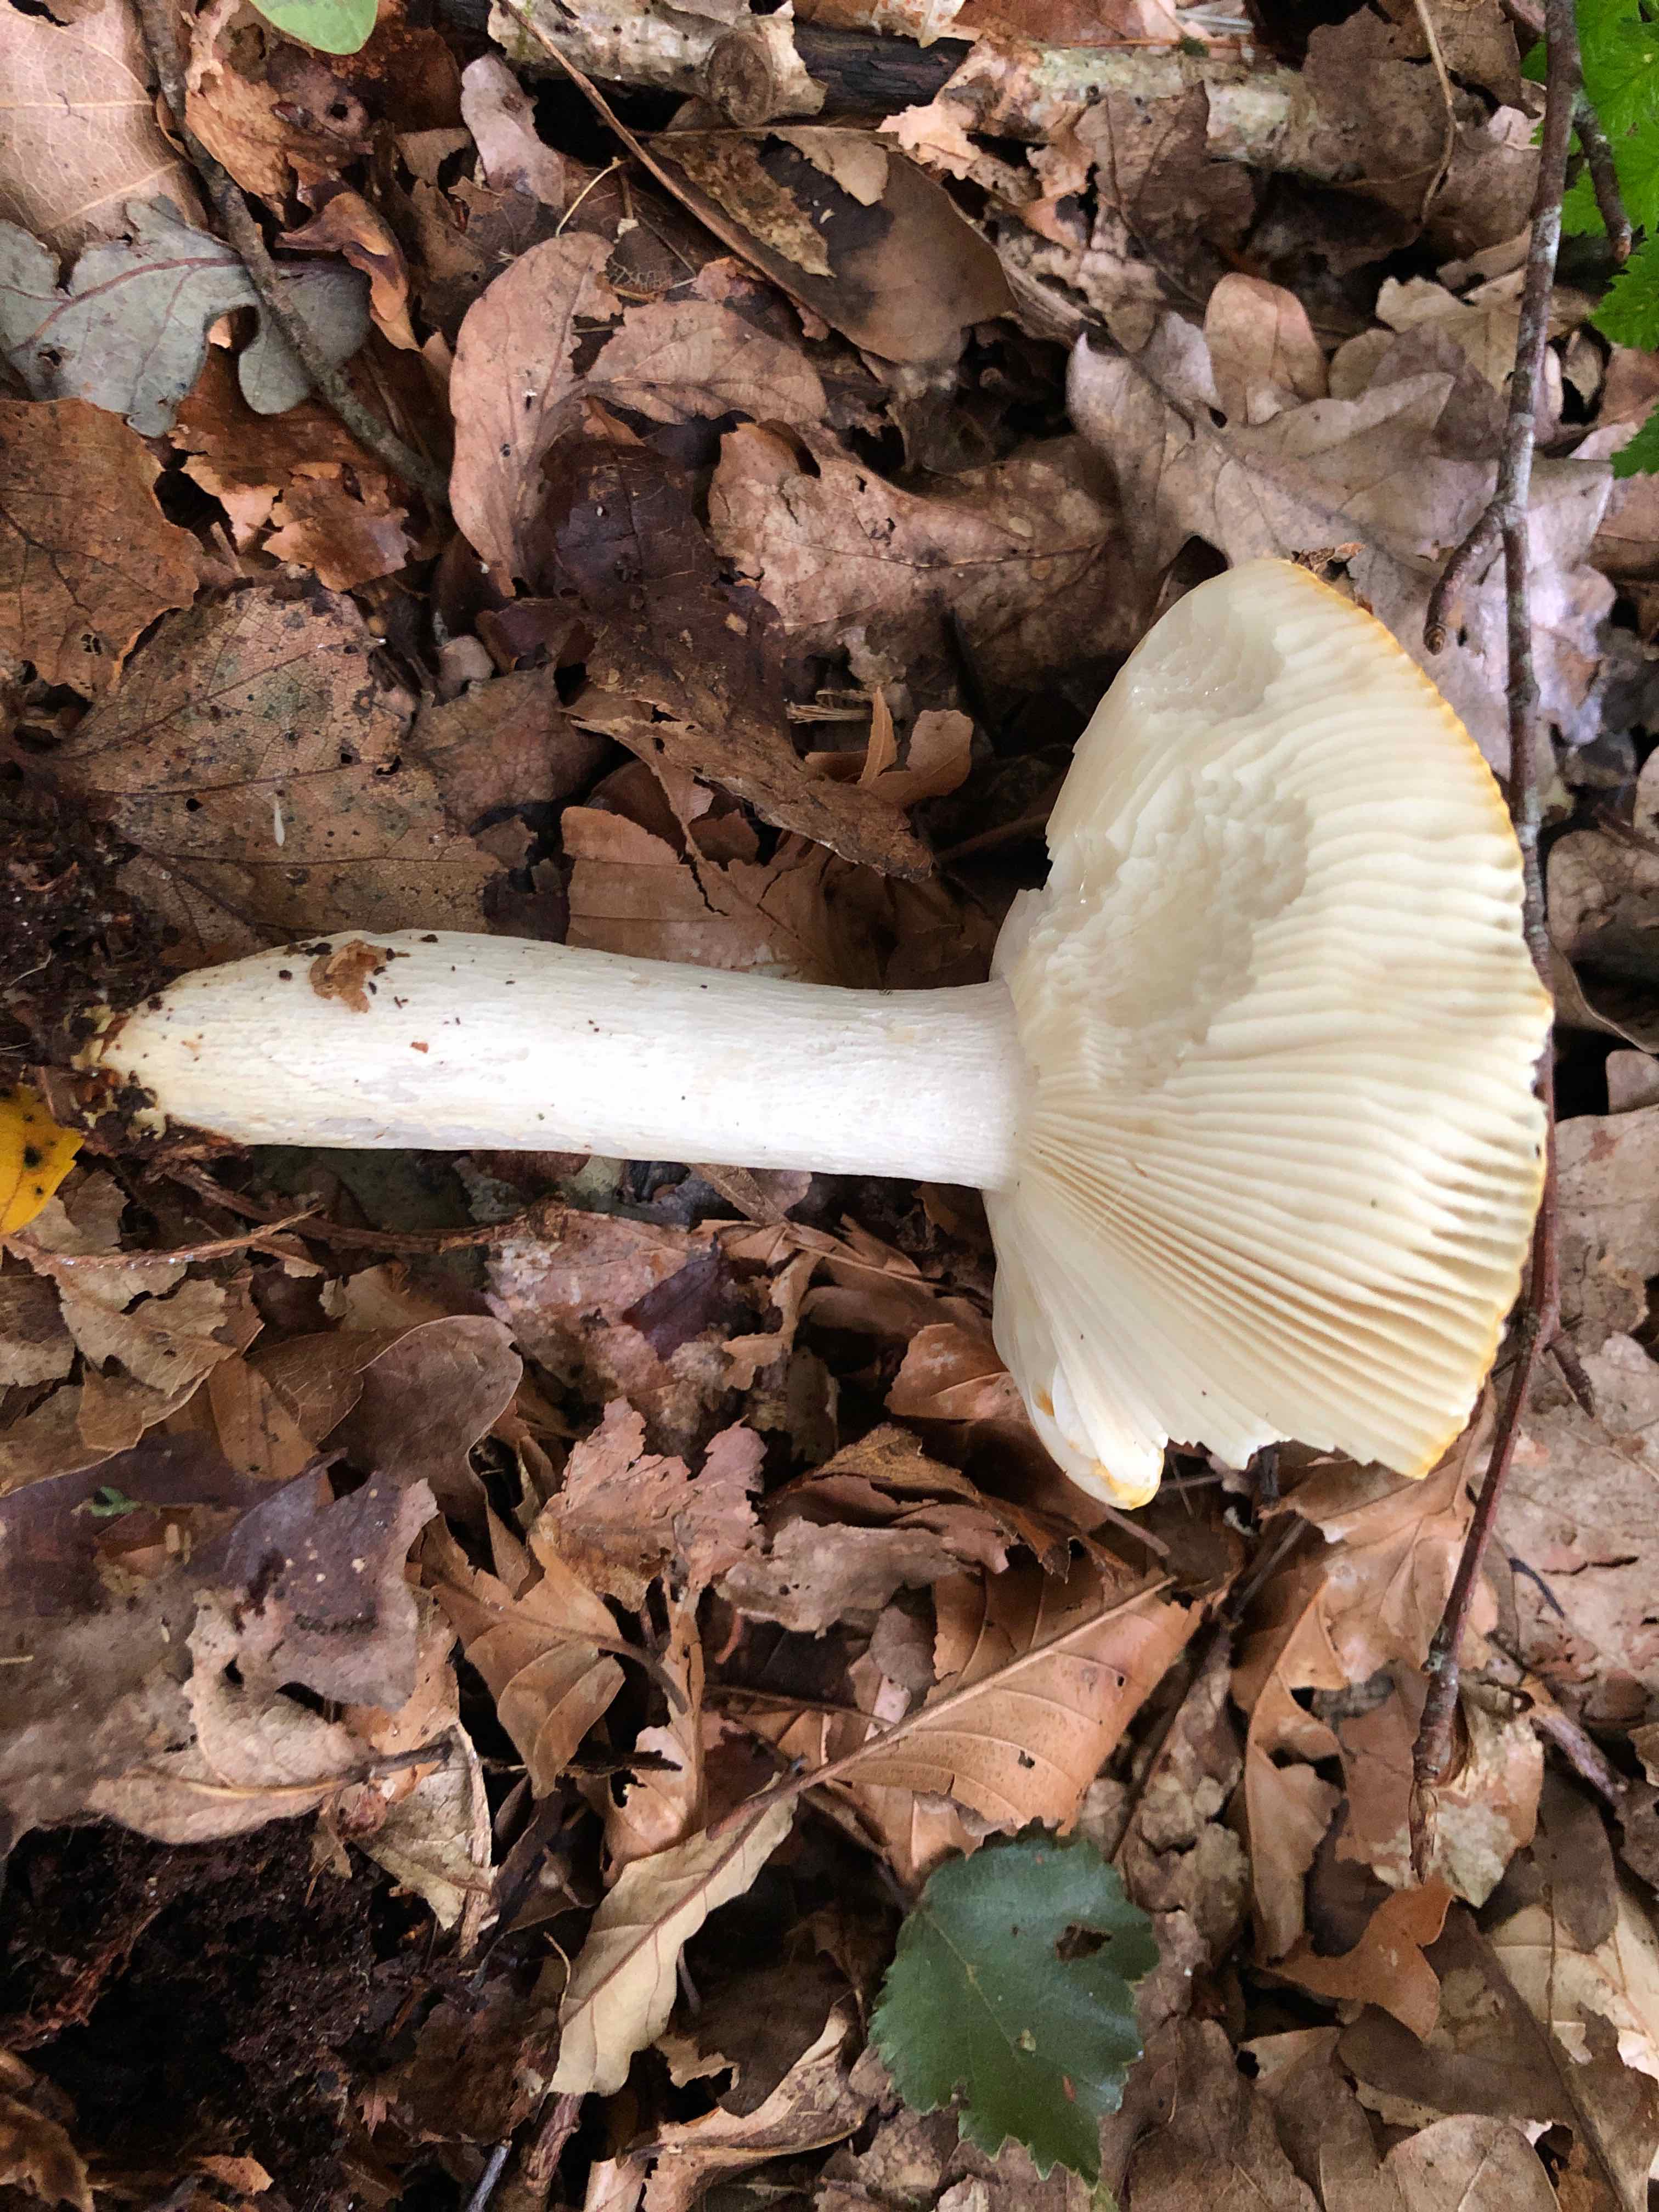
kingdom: Fungi
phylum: Basidiomycota
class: Agaricomycetes
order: Russulales
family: Russulaceae
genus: Russula
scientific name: Russula ochroleuca
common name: okkergul skørhat
